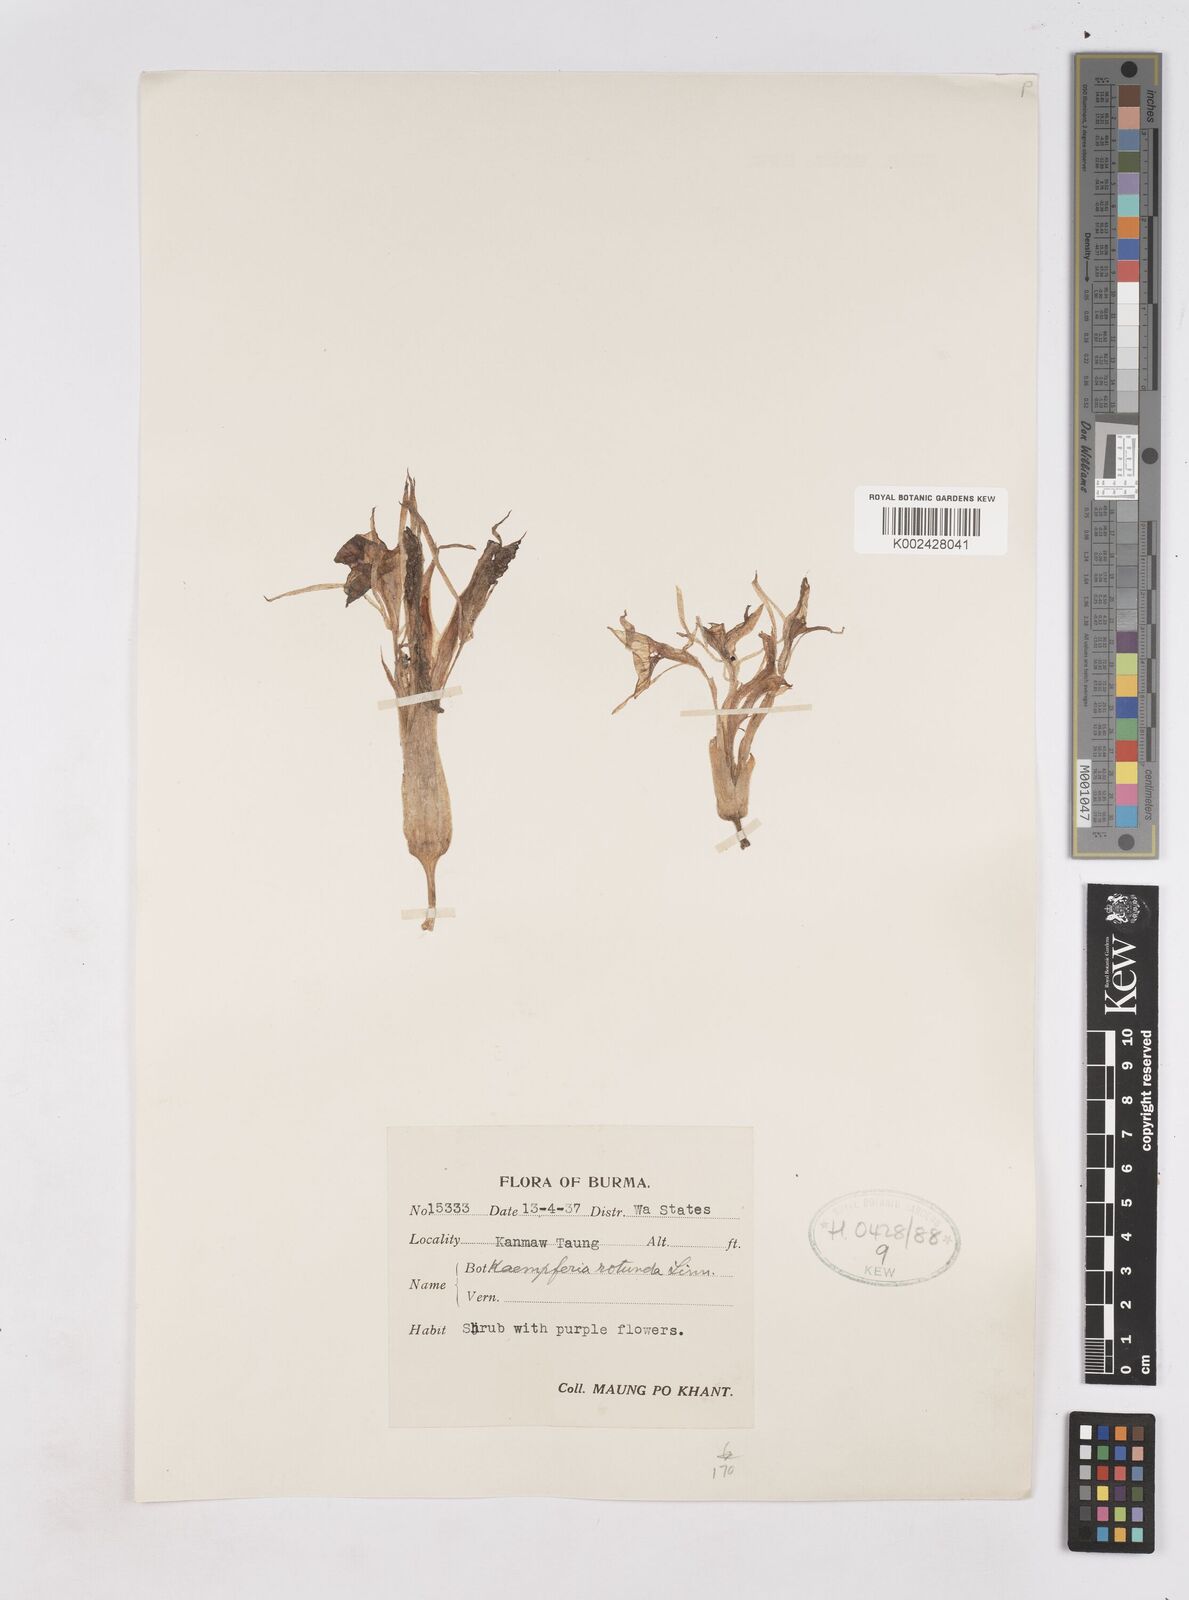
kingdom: Plantae
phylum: Tracheophyta
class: Liliopsida
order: Zingiberales
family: Zingiberaceae
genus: Kaempferia
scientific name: Kaempferia rotunda
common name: Tropical-crocus
